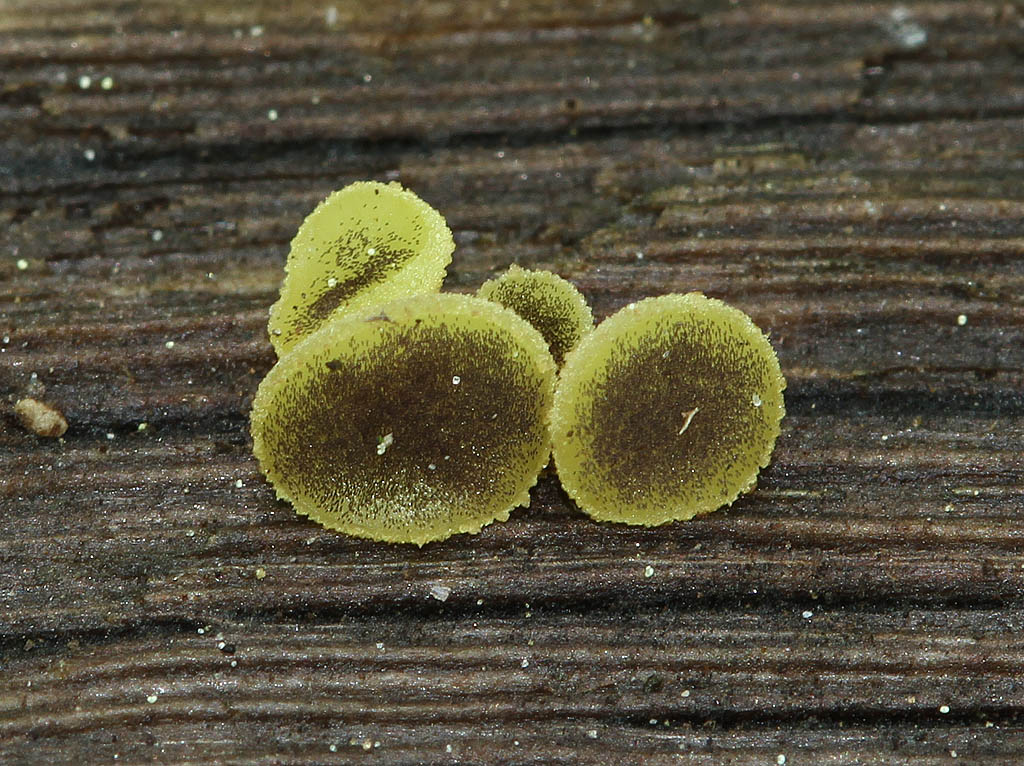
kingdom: Fungi
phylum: Ascomycota
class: Pezizomycetes
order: Pezizales
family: Ascobolaceae
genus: Ascobolus
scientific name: Ascobolus lignatilis
